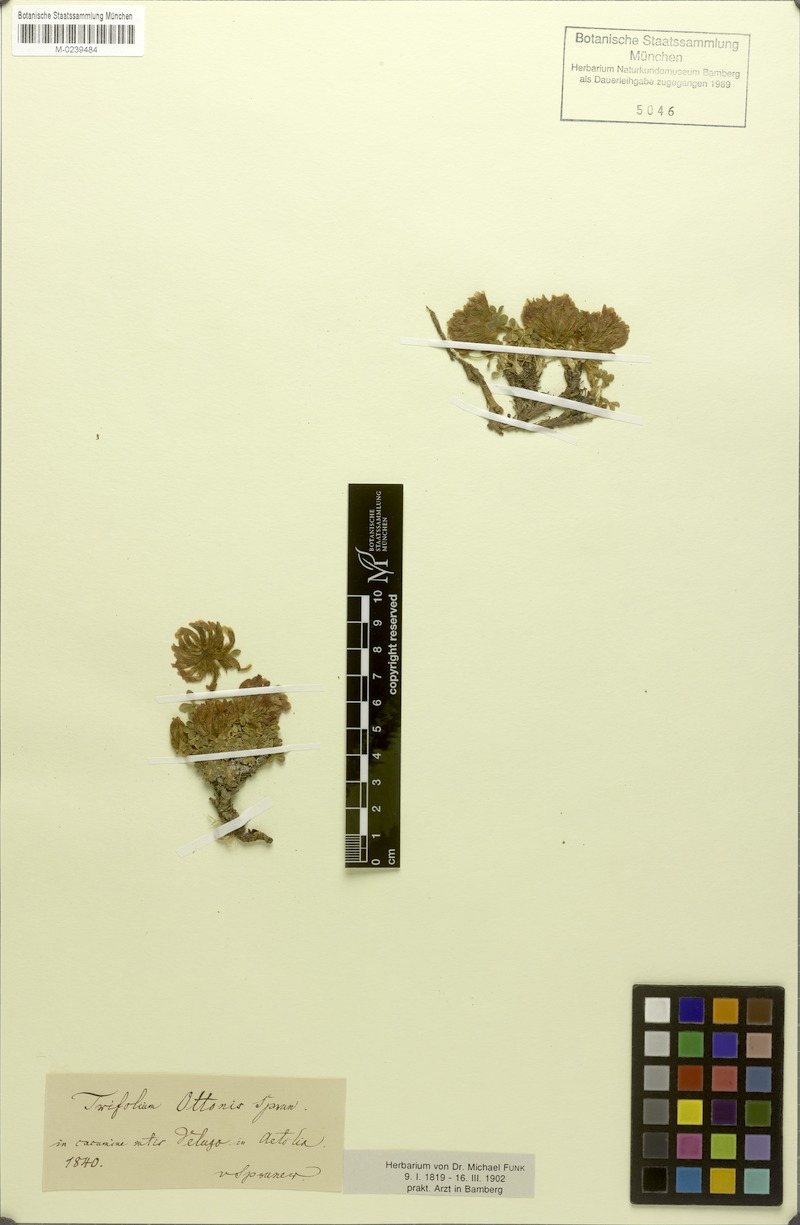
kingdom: Plantae
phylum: Tracheophyta
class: Magnoliopsida
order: Fabales
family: Fabaceae
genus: Trifolium
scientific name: Trifolium noricum
